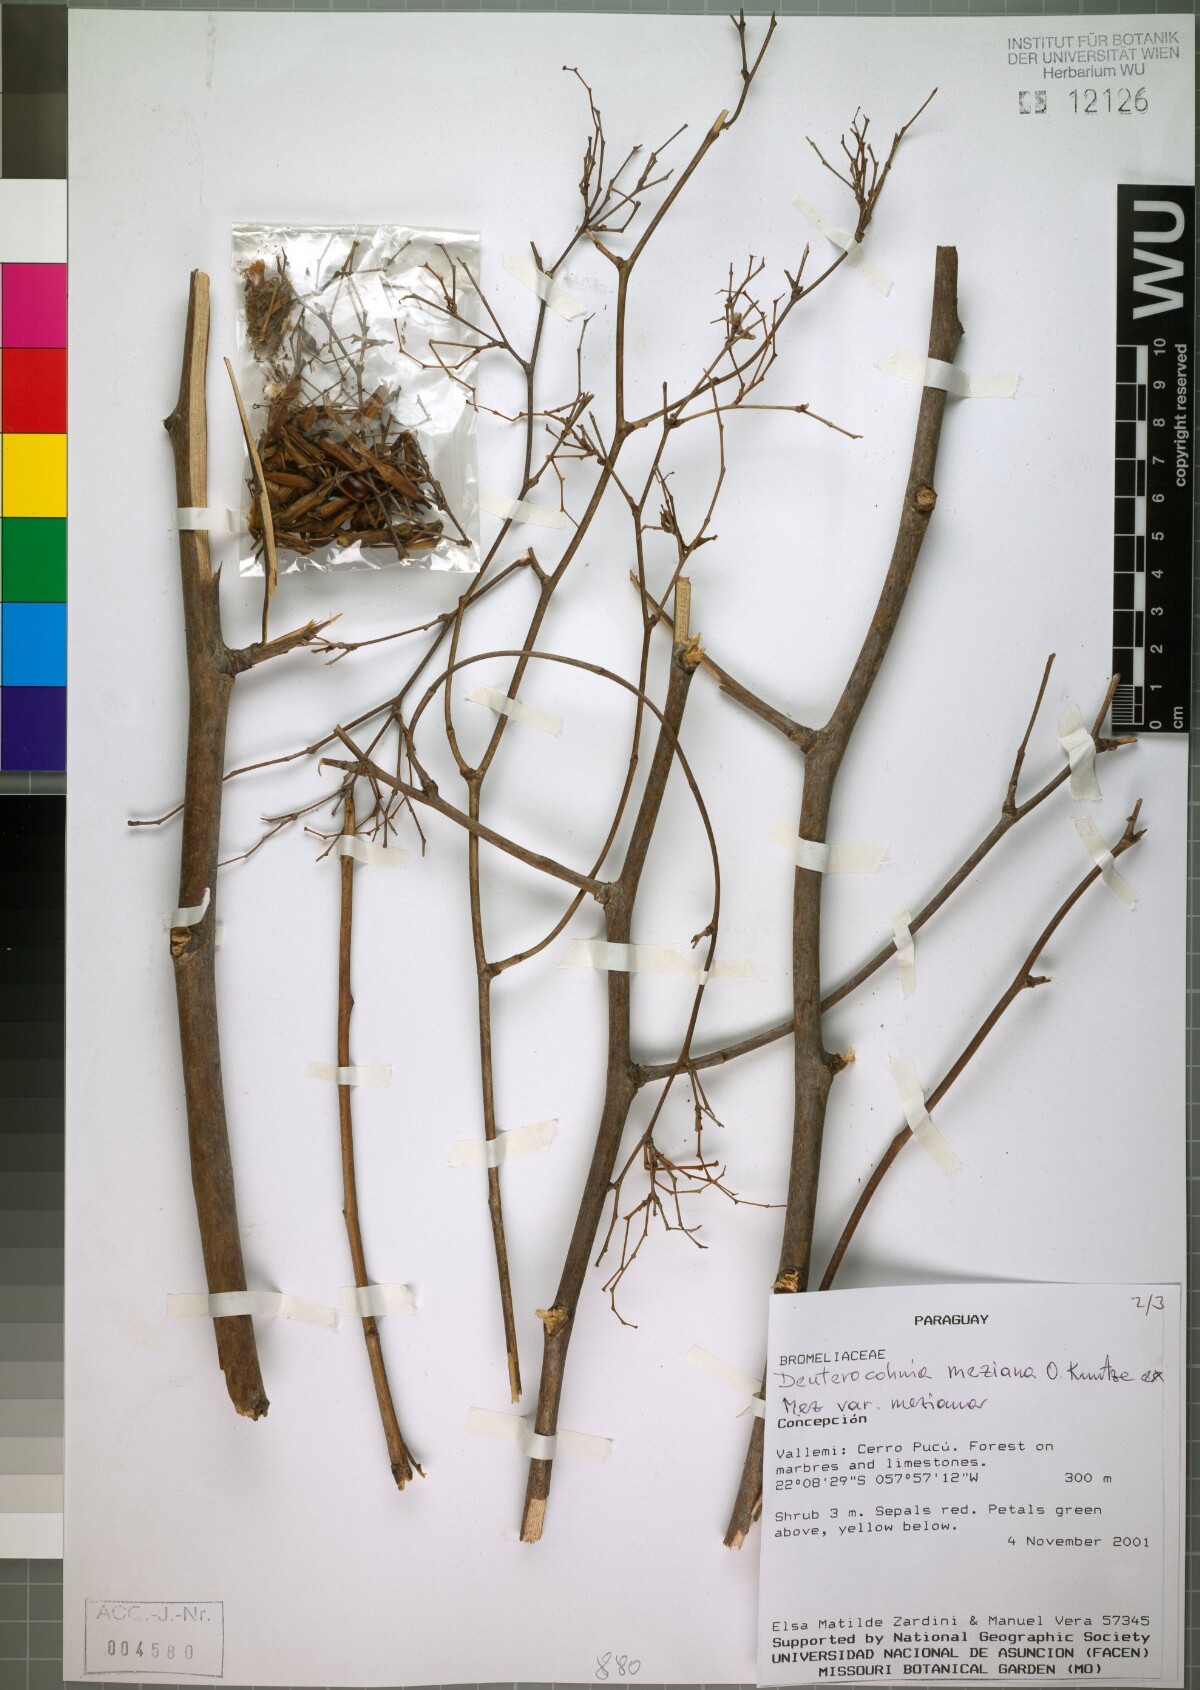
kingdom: Plantae
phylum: Tracheophyta
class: Liliopsida
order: Poales
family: Bromeliaceae
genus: Deuterocohnia
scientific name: Deuterocohnia meziana
